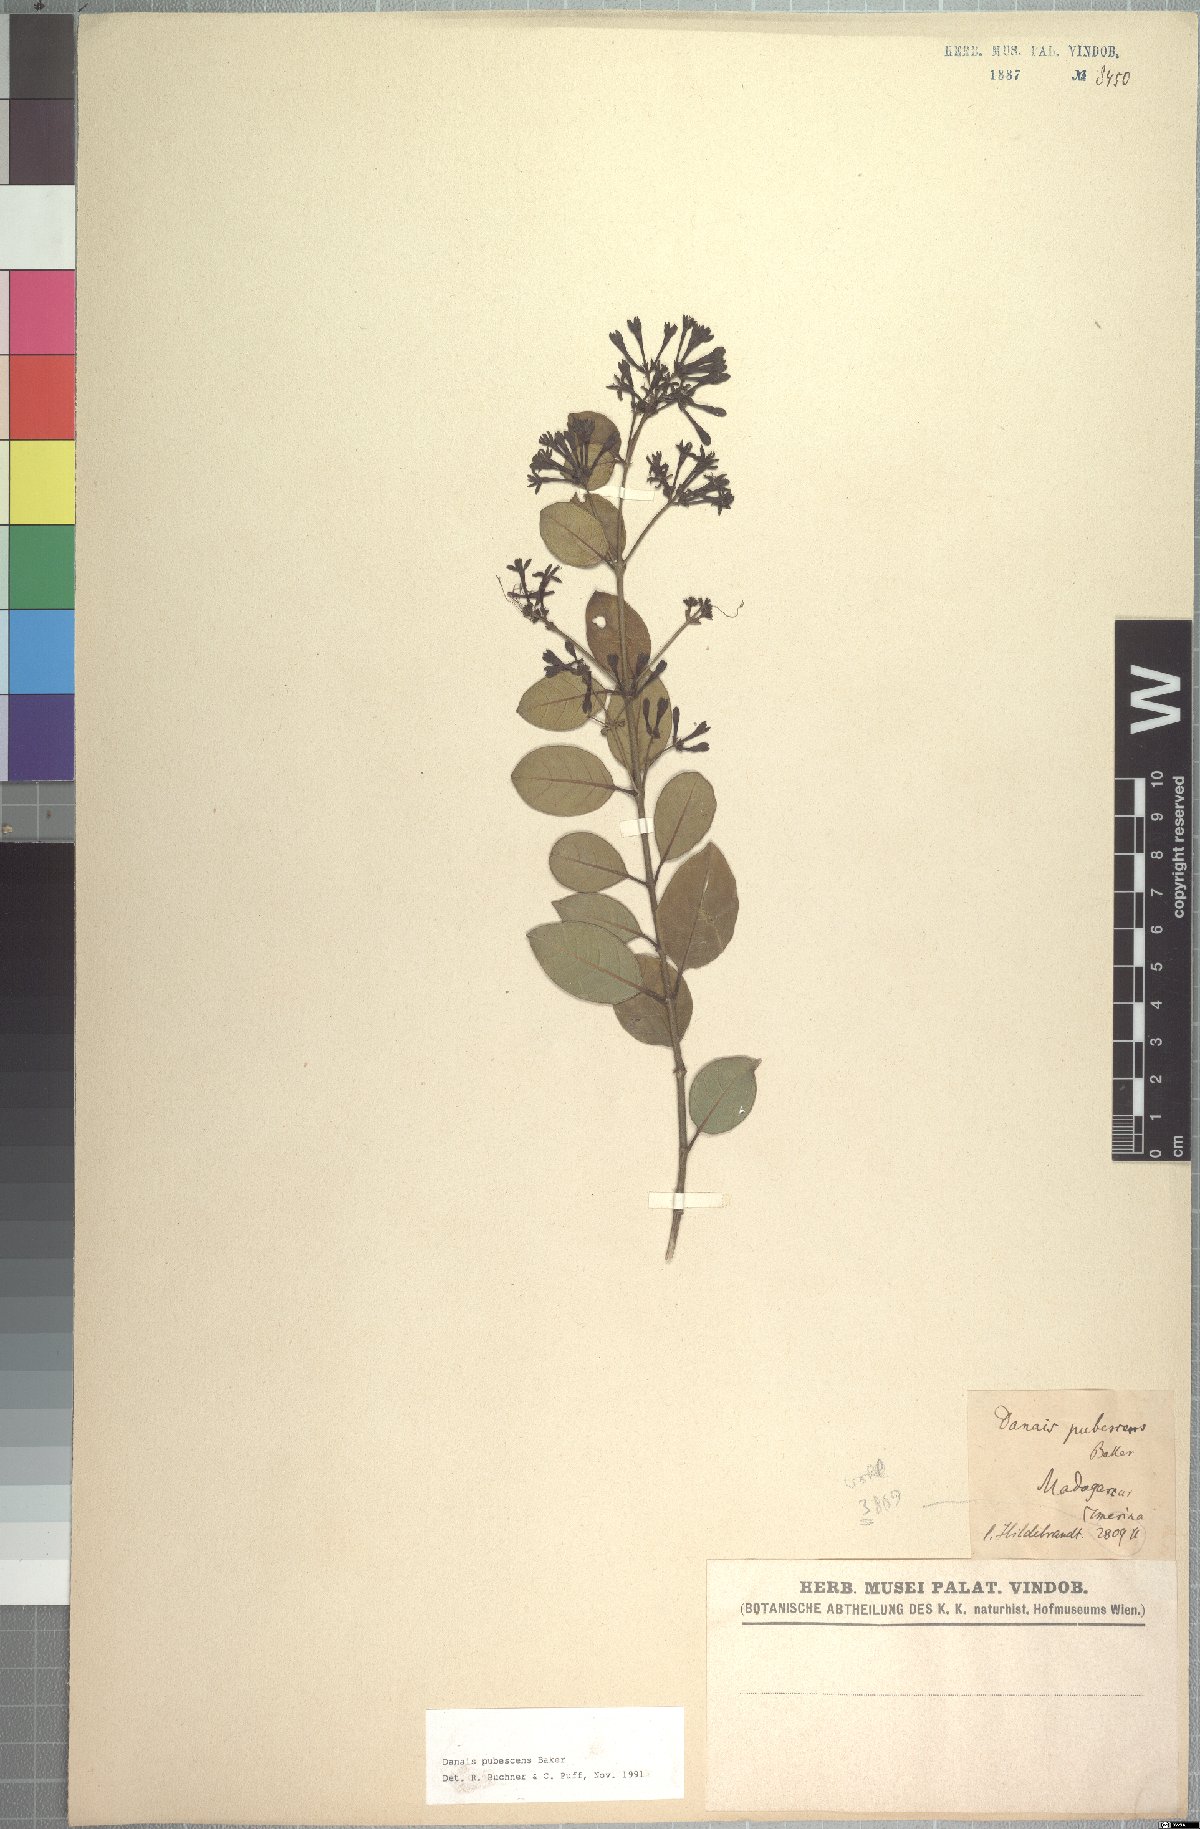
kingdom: Plantae
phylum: Tracheophyta
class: Magnoliopsida
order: Gentianales
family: Rubiaceae
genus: Danais
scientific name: Danais pubescens
